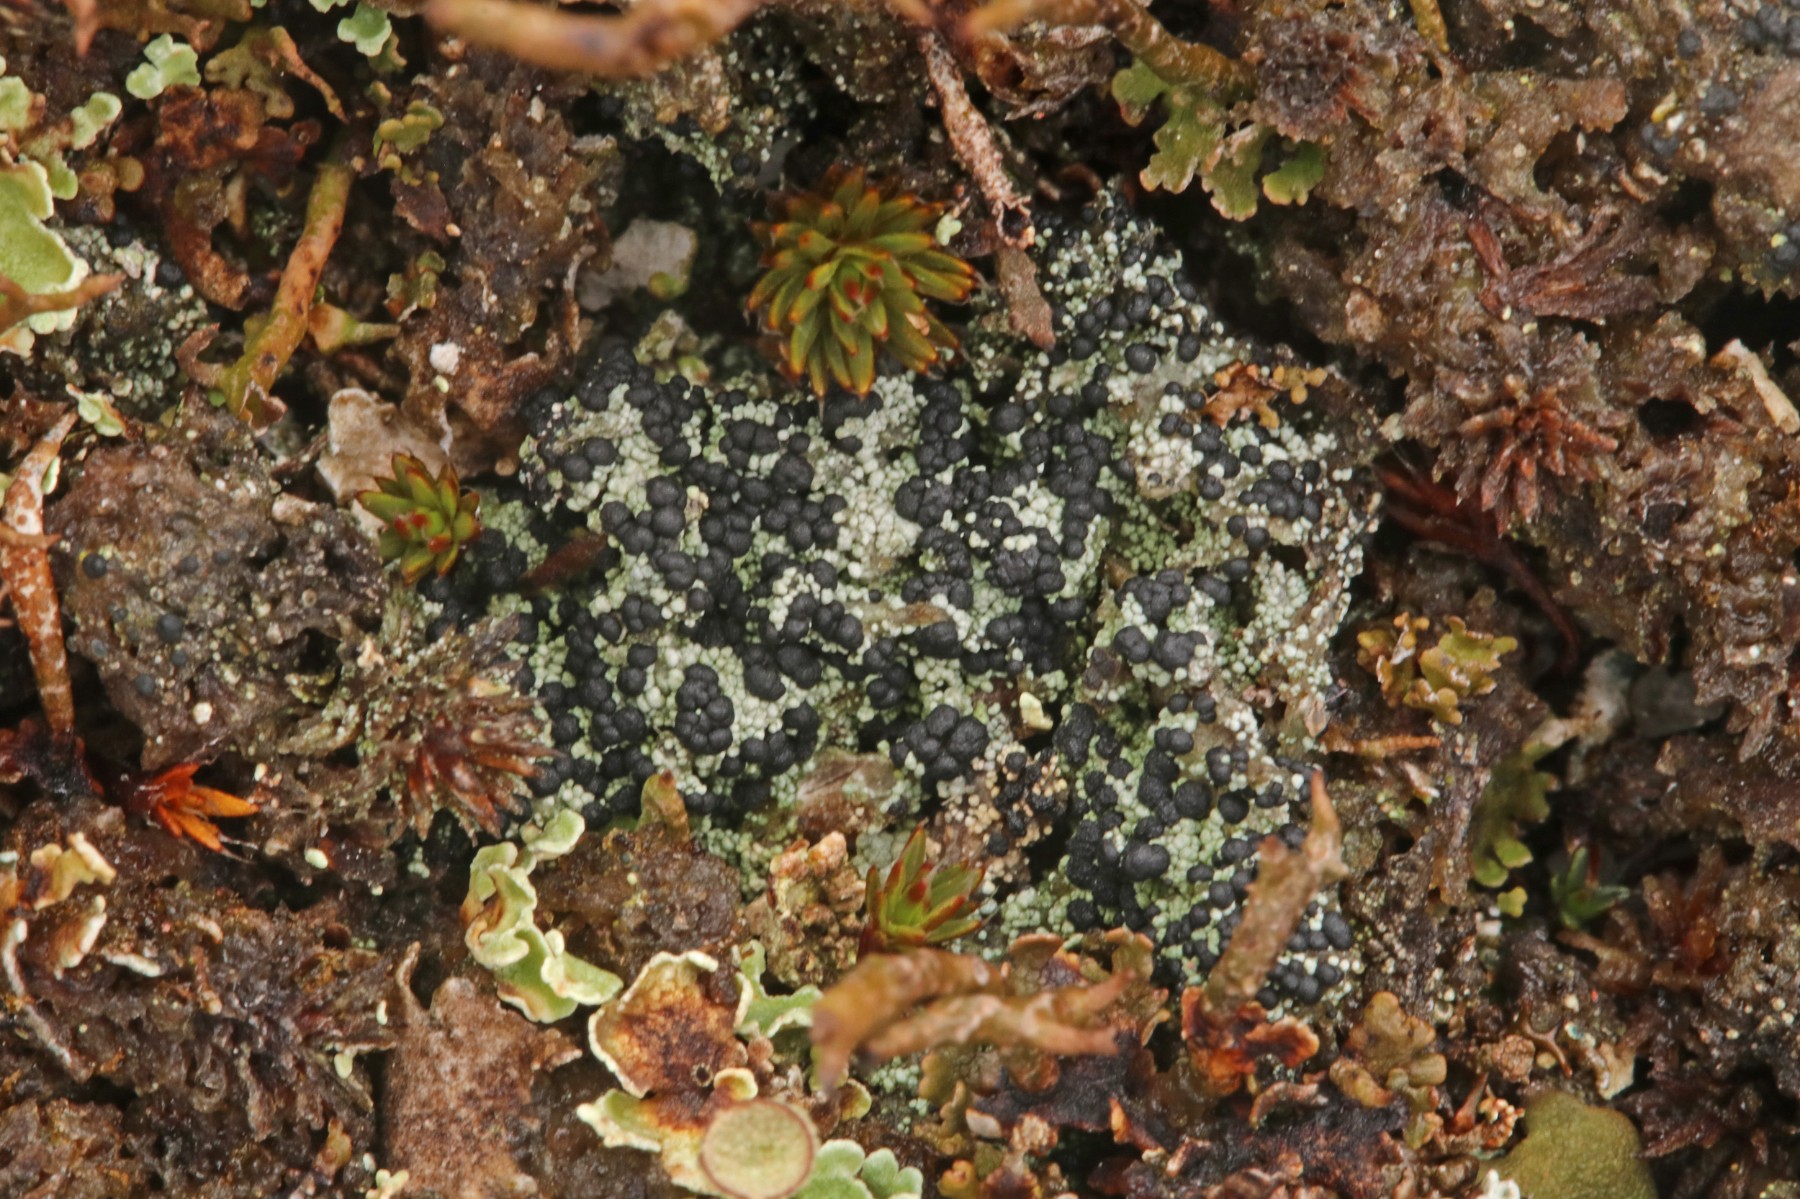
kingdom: Fungi
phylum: Ascomycota
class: Lecanoromycetes
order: Lecanorales
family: Byssolomataceae
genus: Micarea
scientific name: Micarea lignaria
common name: tørve-knaplav
